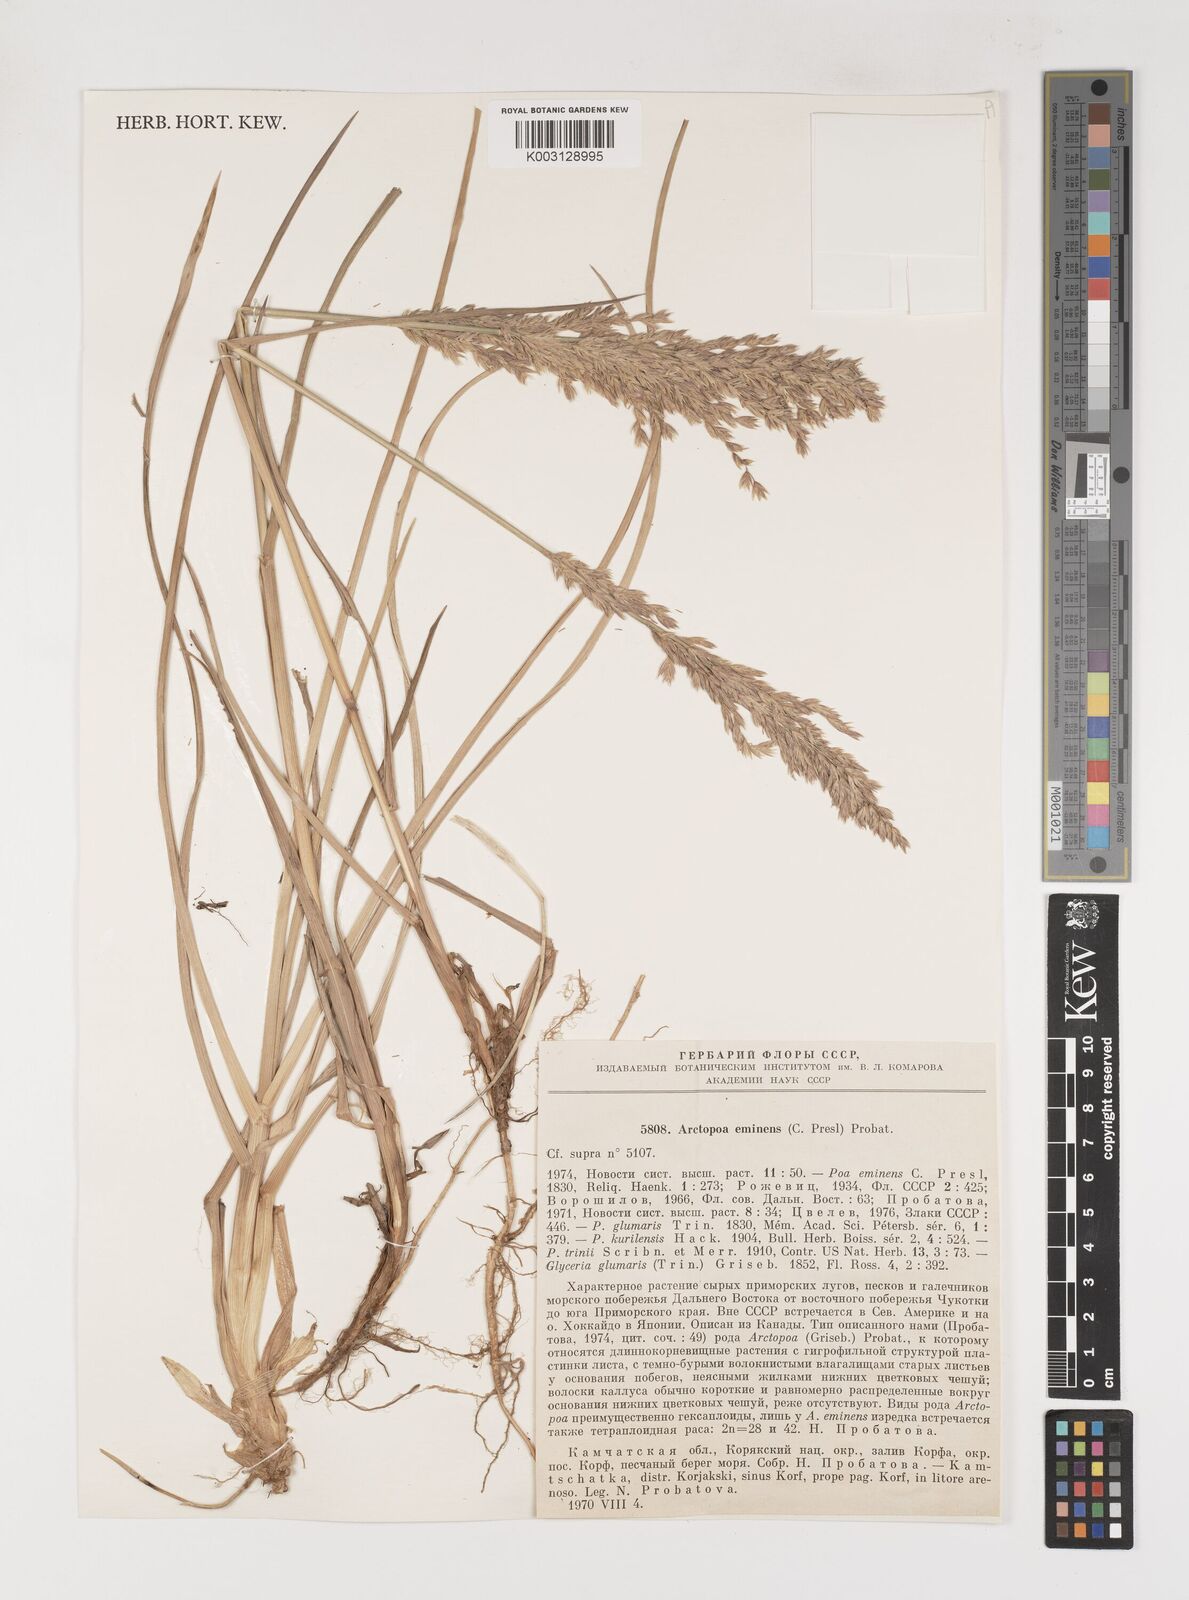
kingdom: Plantae
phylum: Tracheophyta
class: Liliopsida
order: Poales
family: Poaceae
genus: Arctopoa
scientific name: Arctopoa eminens
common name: Eminent bluegrass
